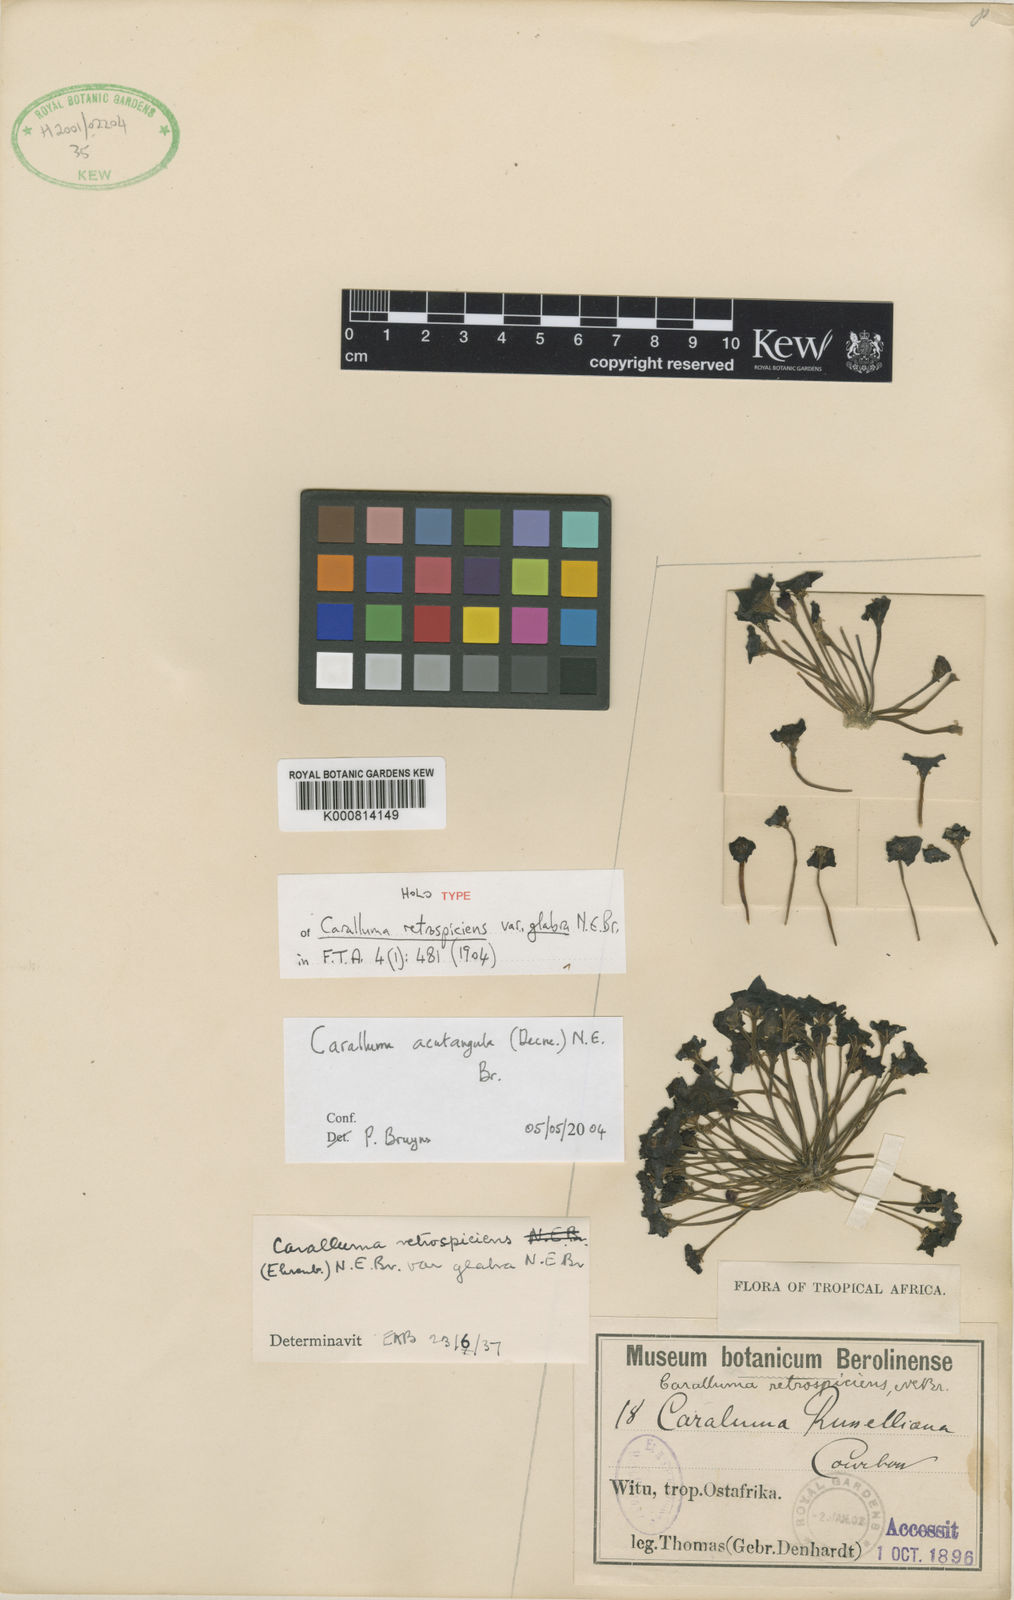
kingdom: Plantae
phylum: Tracheophyta
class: Magnoliopsida
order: Gentianales
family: Apocynaceae
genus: Ceropegia
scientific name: Ceropegia retrospiciens
